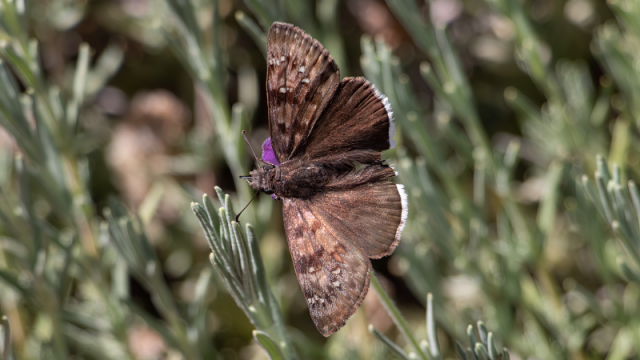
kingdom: Animalia
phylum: Arthropoda
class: Insecta
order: Lepidoptera
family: Hesperiidae
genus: Erynnis
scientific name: Erynnis tristis
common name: Mournful Duskywing
